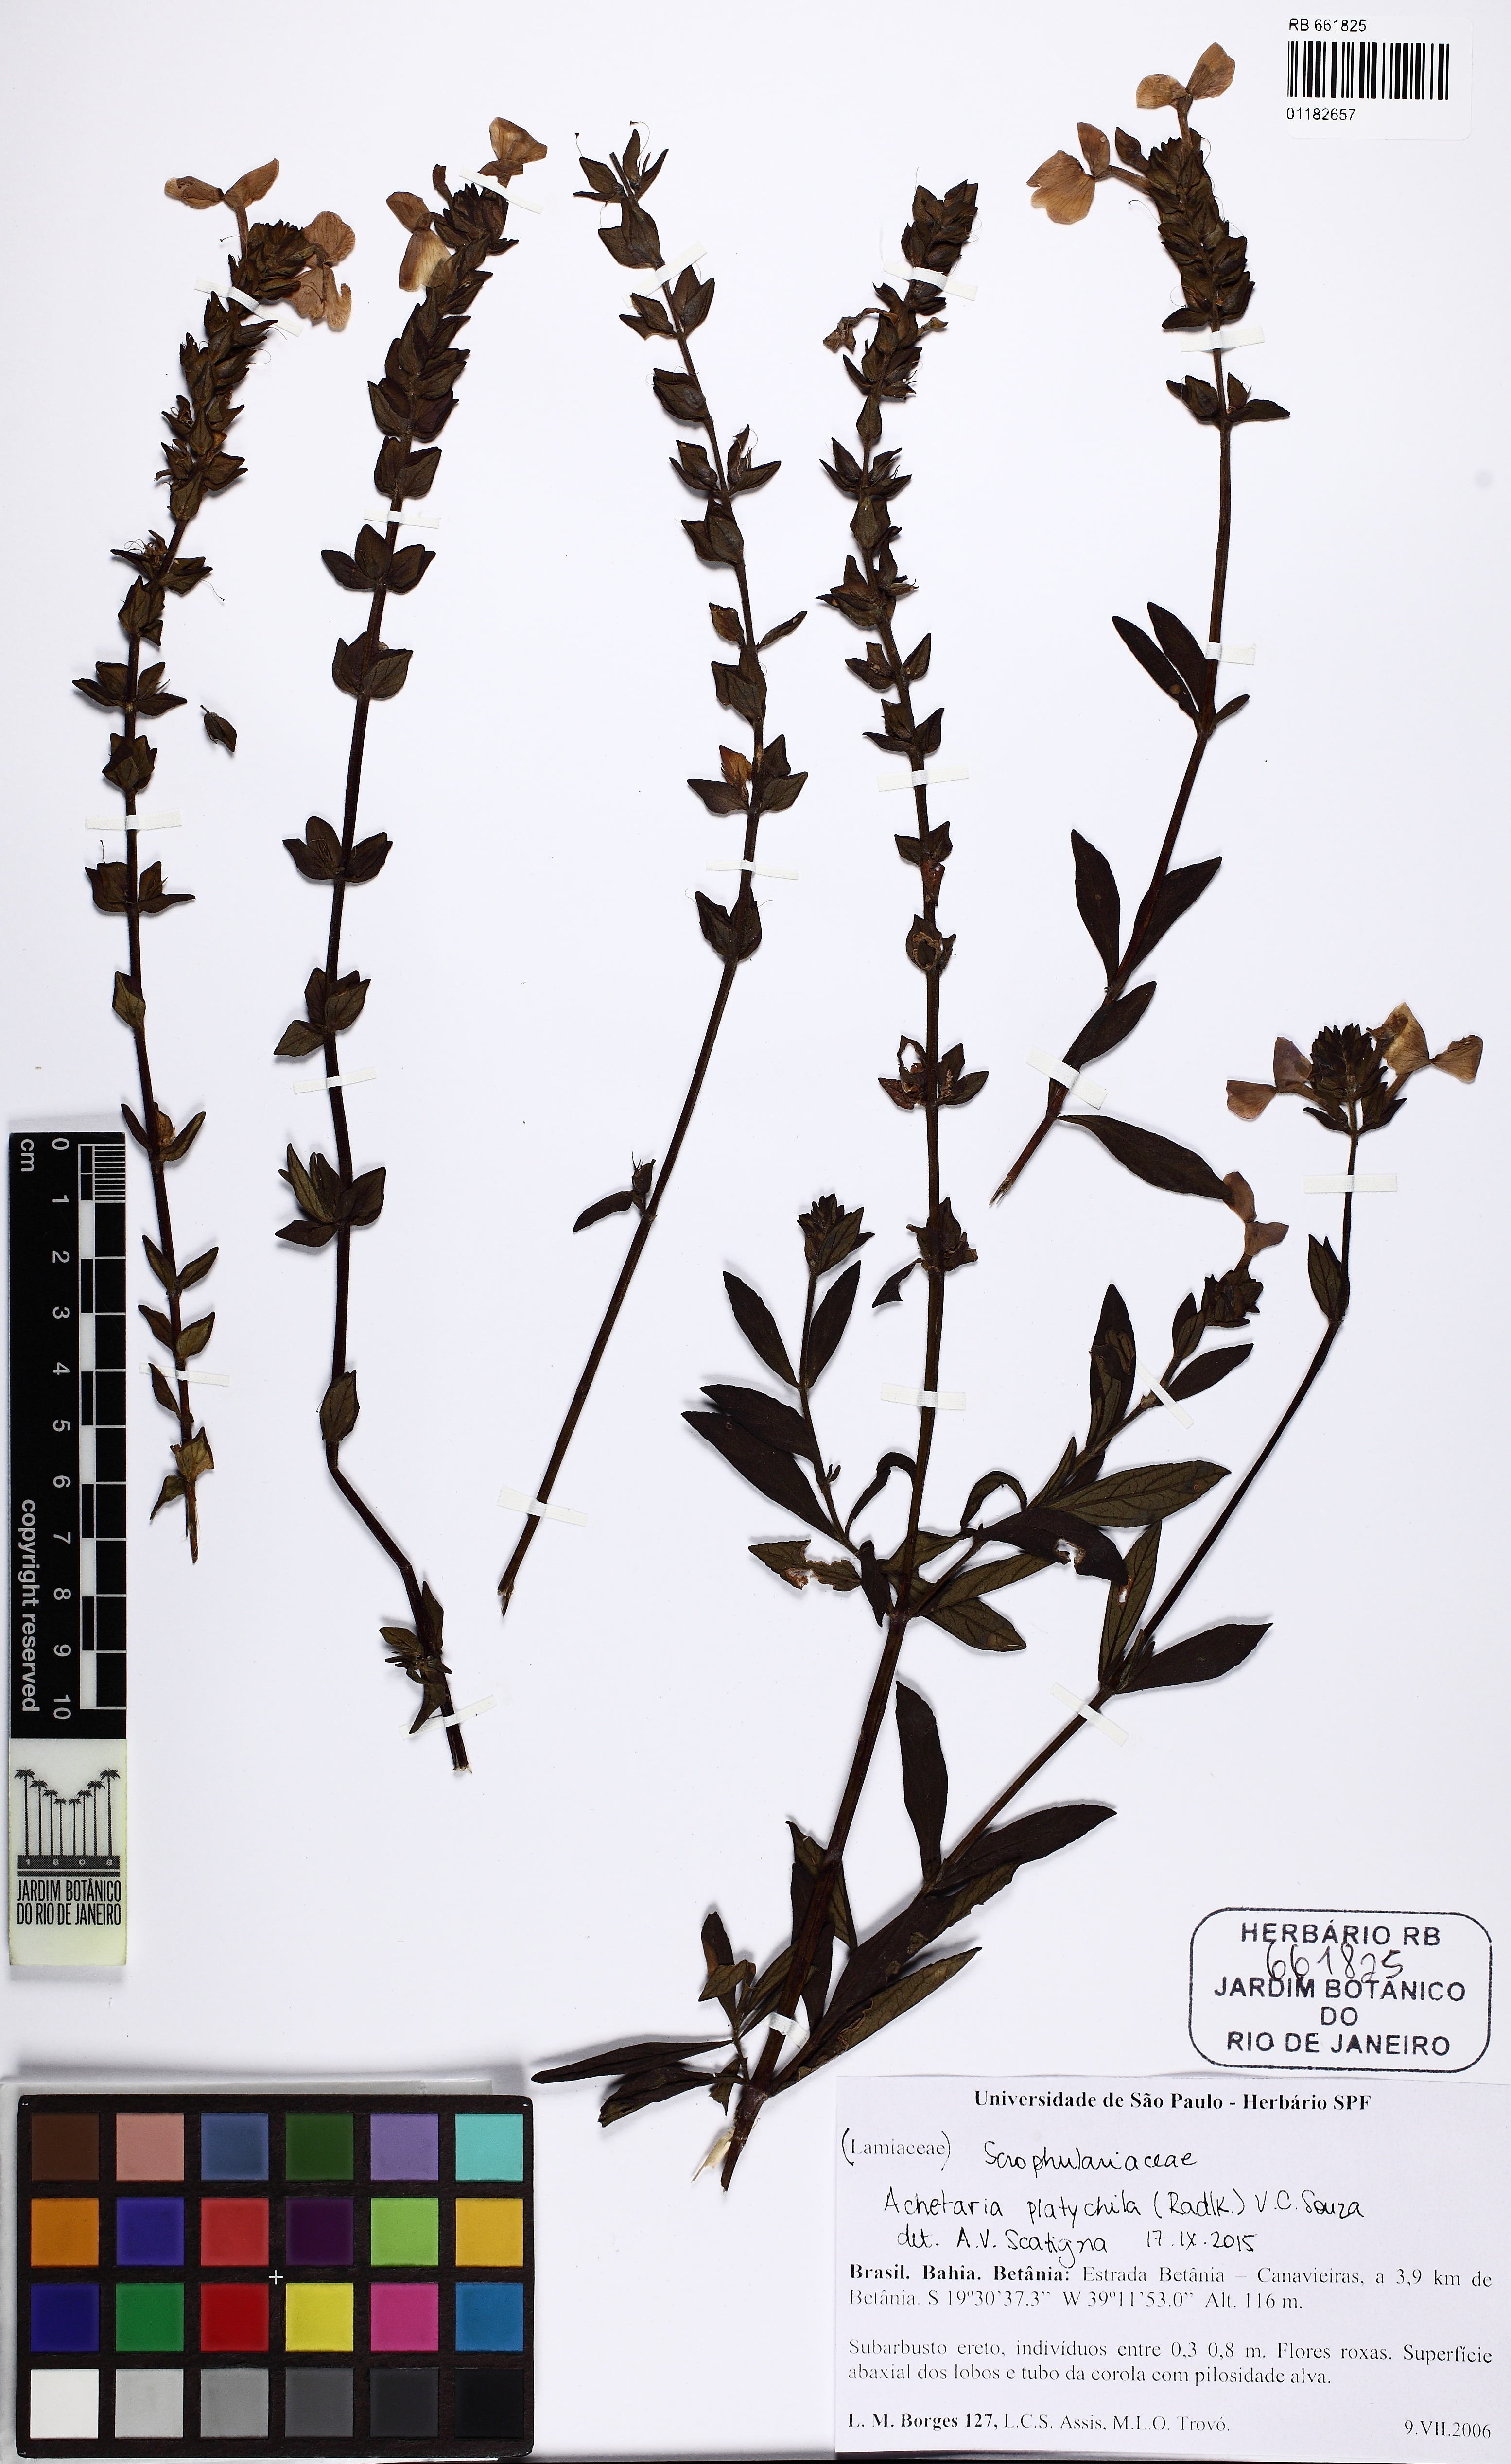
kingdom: Plantae
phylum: Tracheophyta
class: Magnoliopsida
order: Lamiales
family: Plantaginaceae
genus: Matourea
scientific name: Matourea
